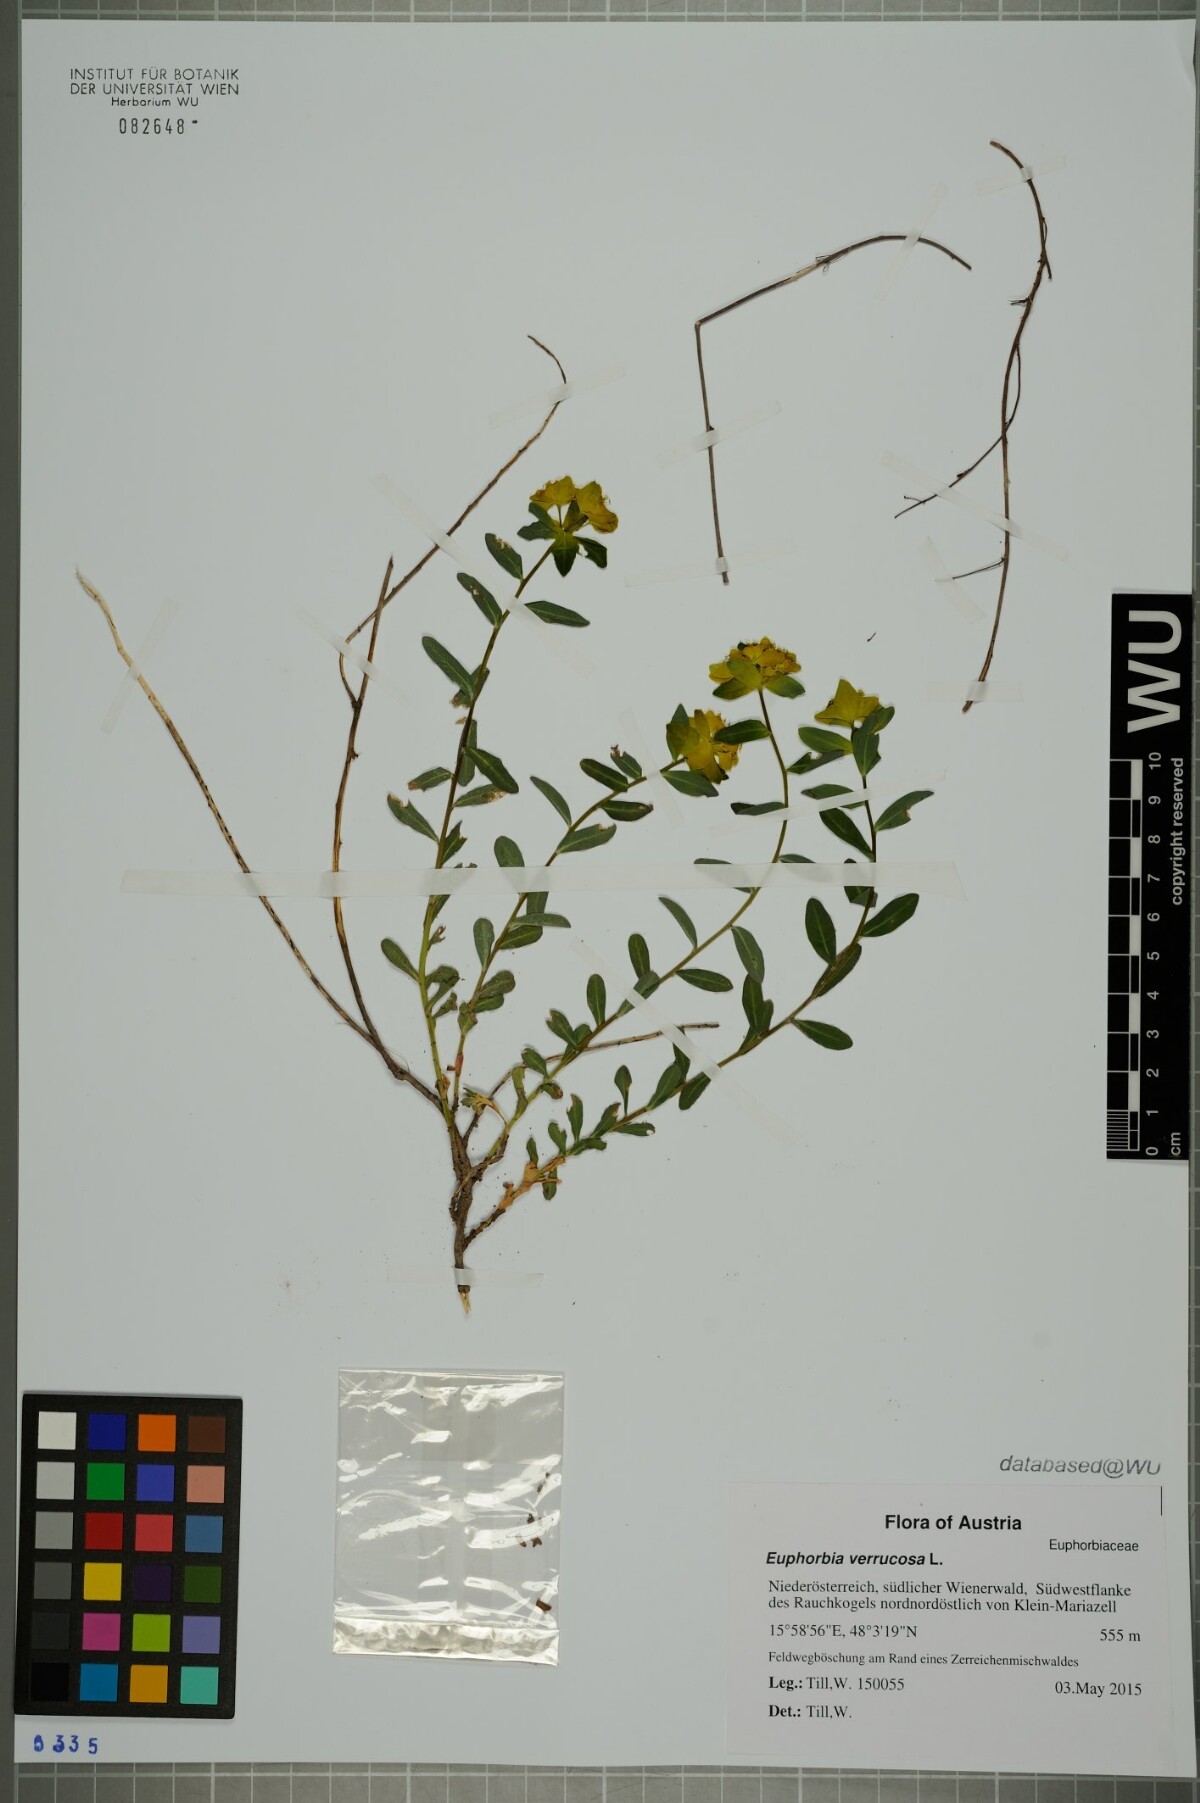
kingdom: Plantae
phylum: Tracheophyta
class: Magnoliopsida
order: Malpighiales
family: Euphorbiaceae
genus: Euphorbia
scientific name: Euphorbia verrucosa
